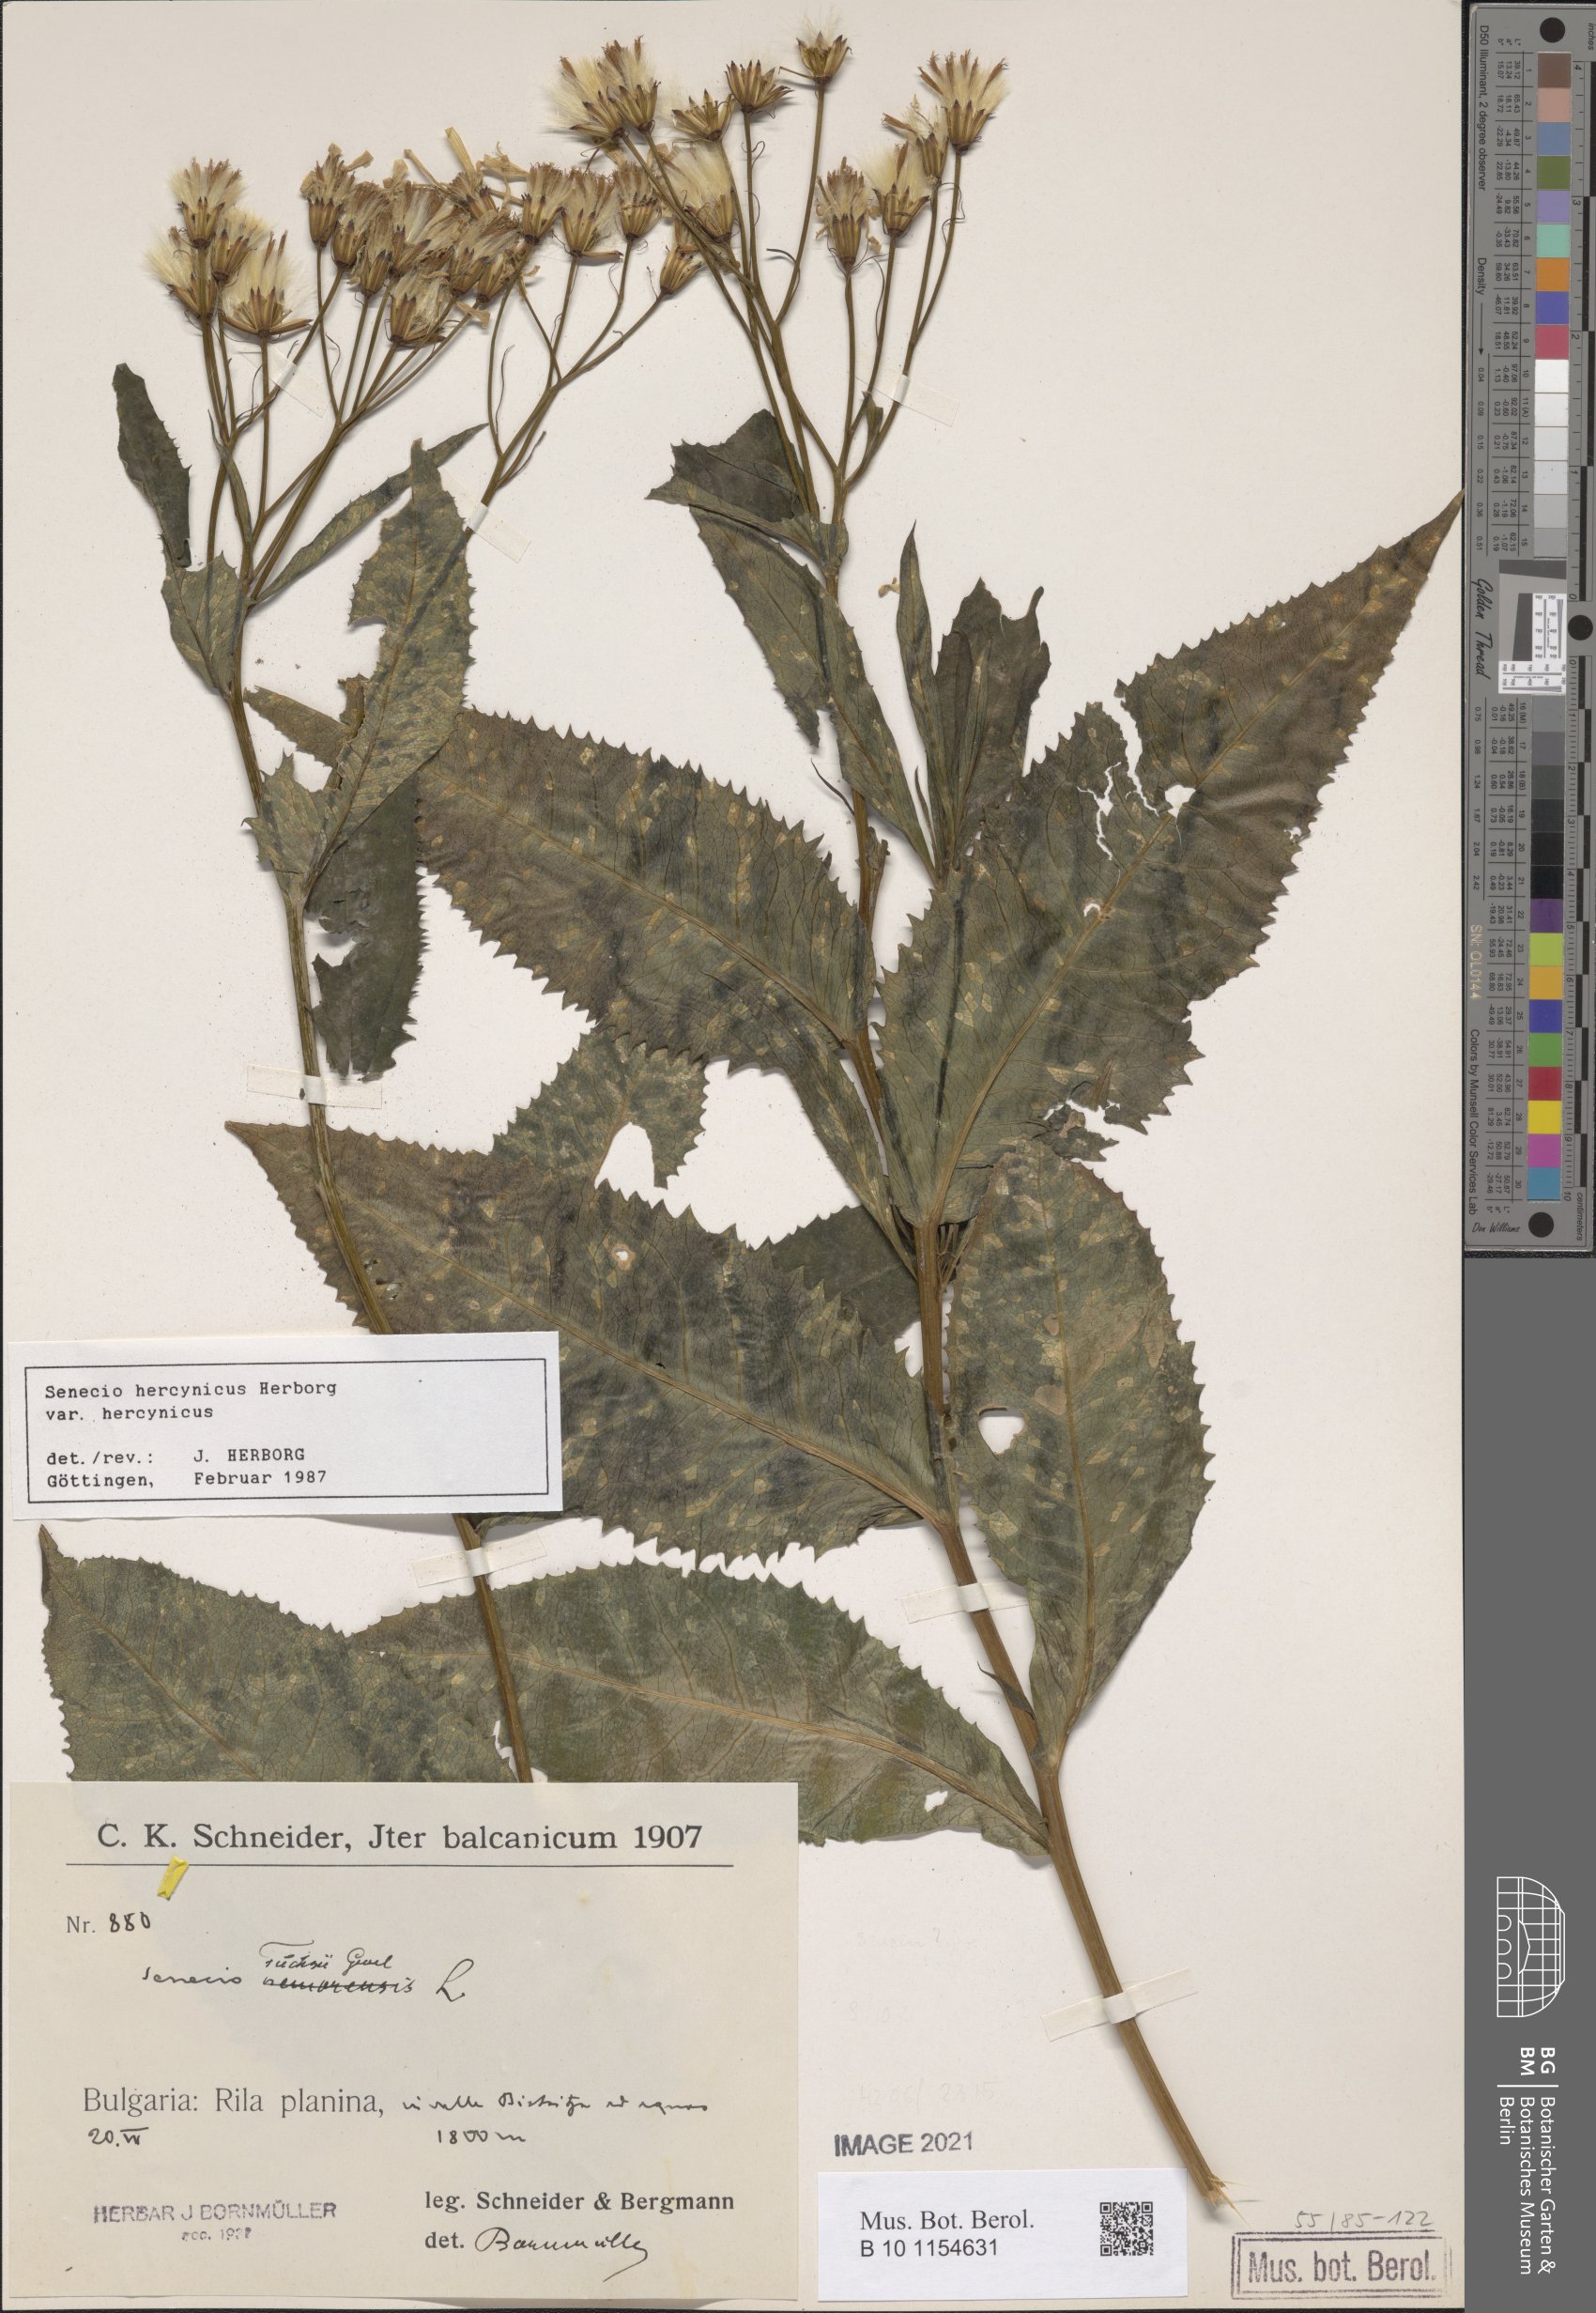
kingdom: Plantae
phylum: Tracheophyta
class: Magnoliopsida
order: Asterales
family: Asteraceae
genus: Senecio
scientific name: Senecio hercynicus
